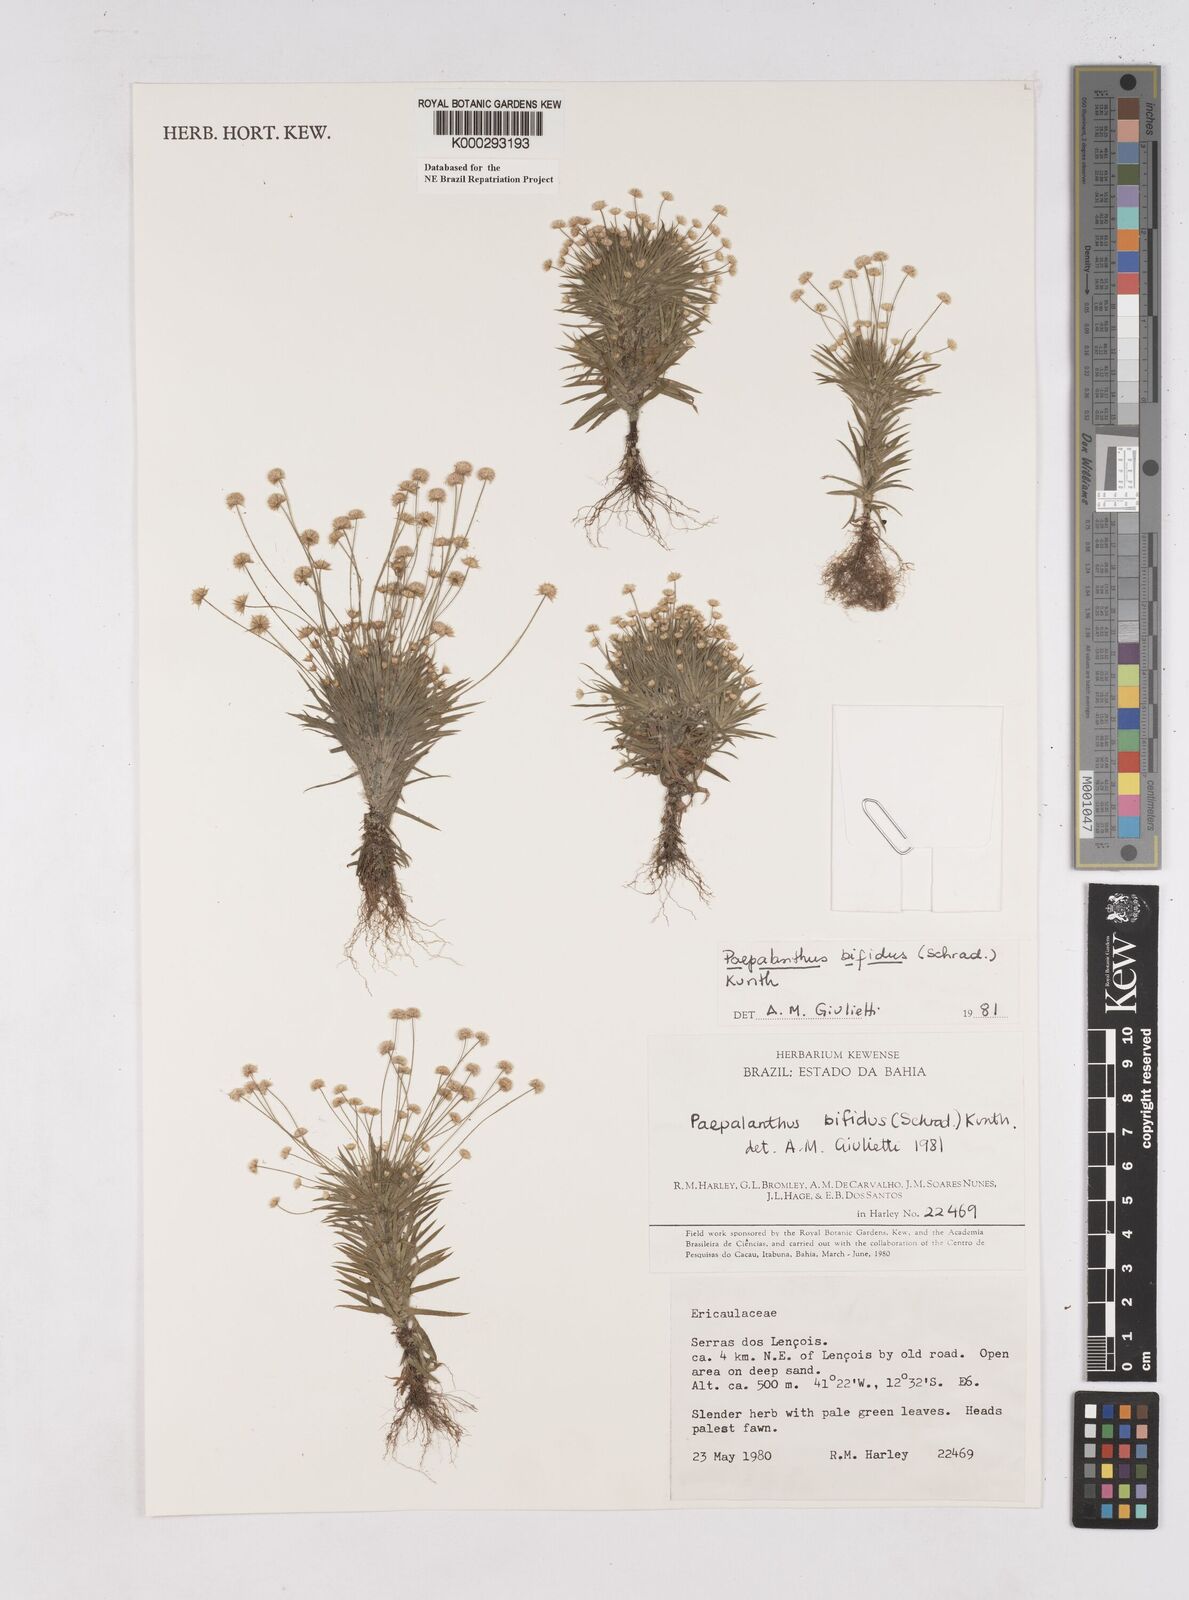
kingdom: Plantae
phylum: Tracheophyta
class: Liliopsida
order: Poales
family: Eriocaulaceae
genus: Paepalanthus
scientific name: Paepalanthus bifidus
